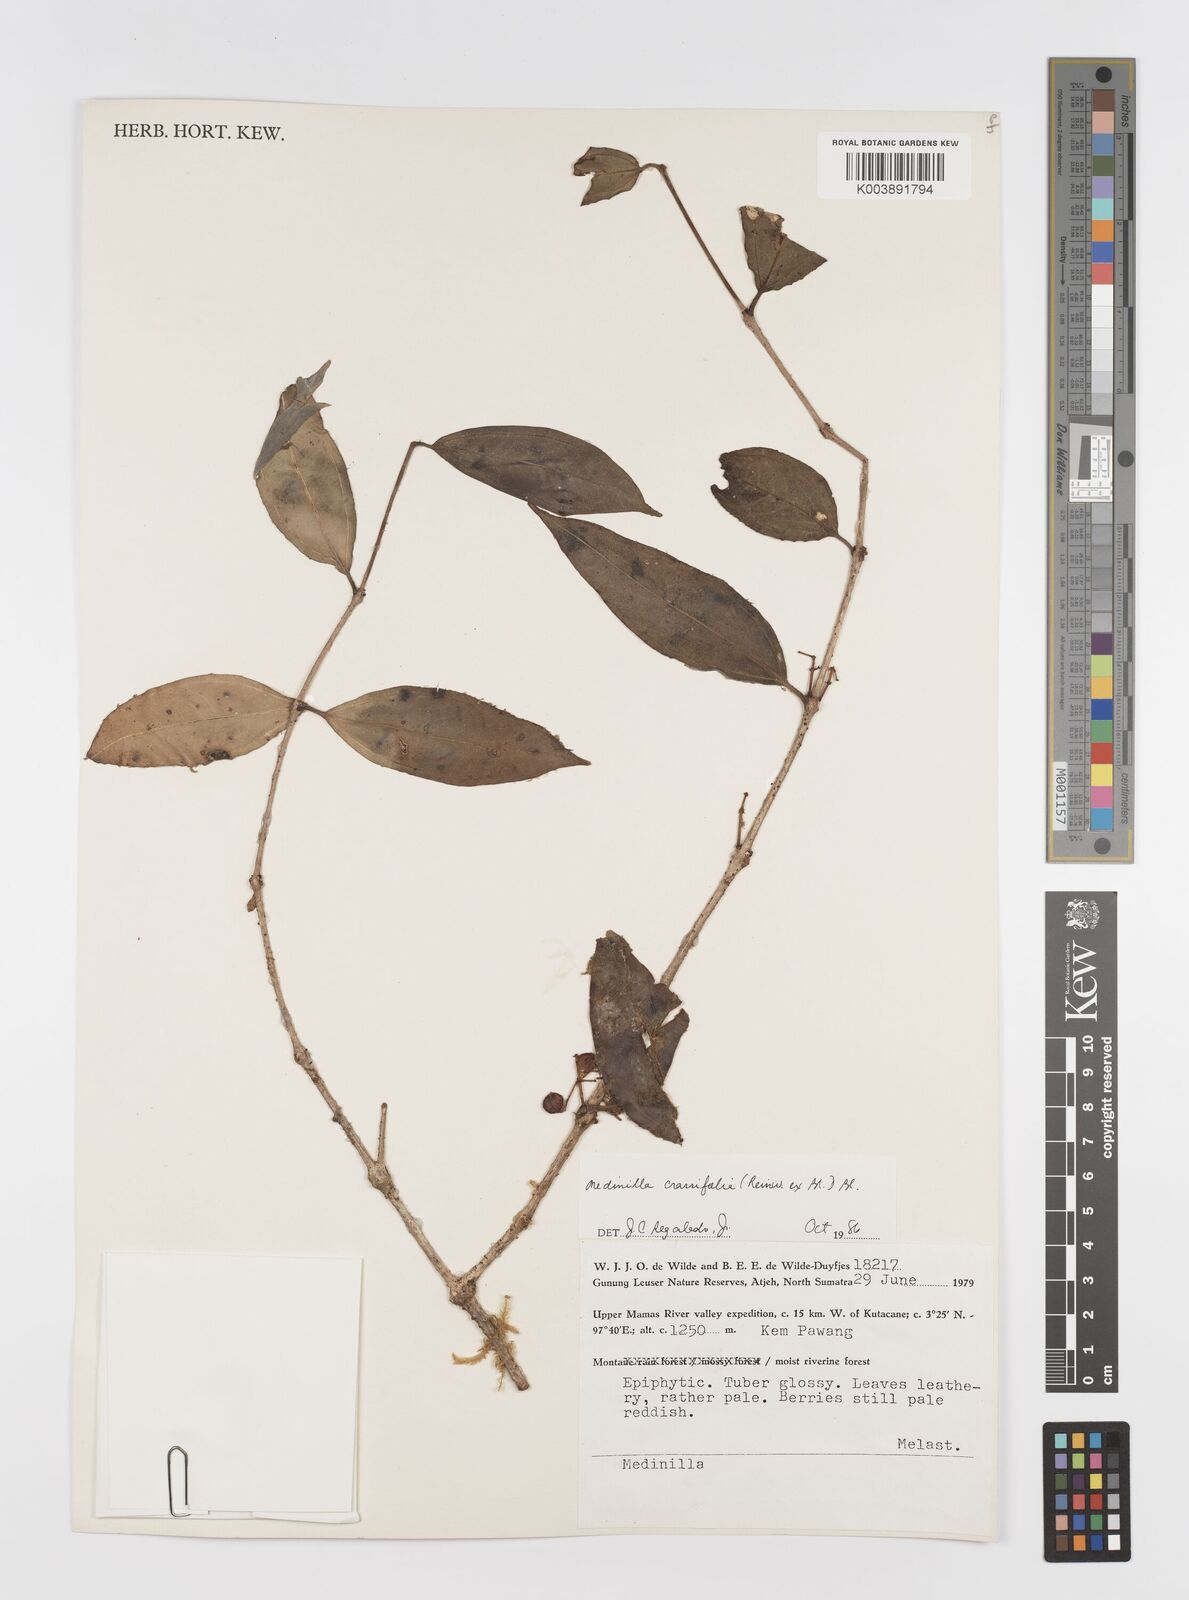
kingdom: Plantae
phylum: Tracheophyta
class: Magnoliopsida
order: Myrtales
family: Melastomataceae
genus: Medinilla
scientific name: Medinilla crassifolia
